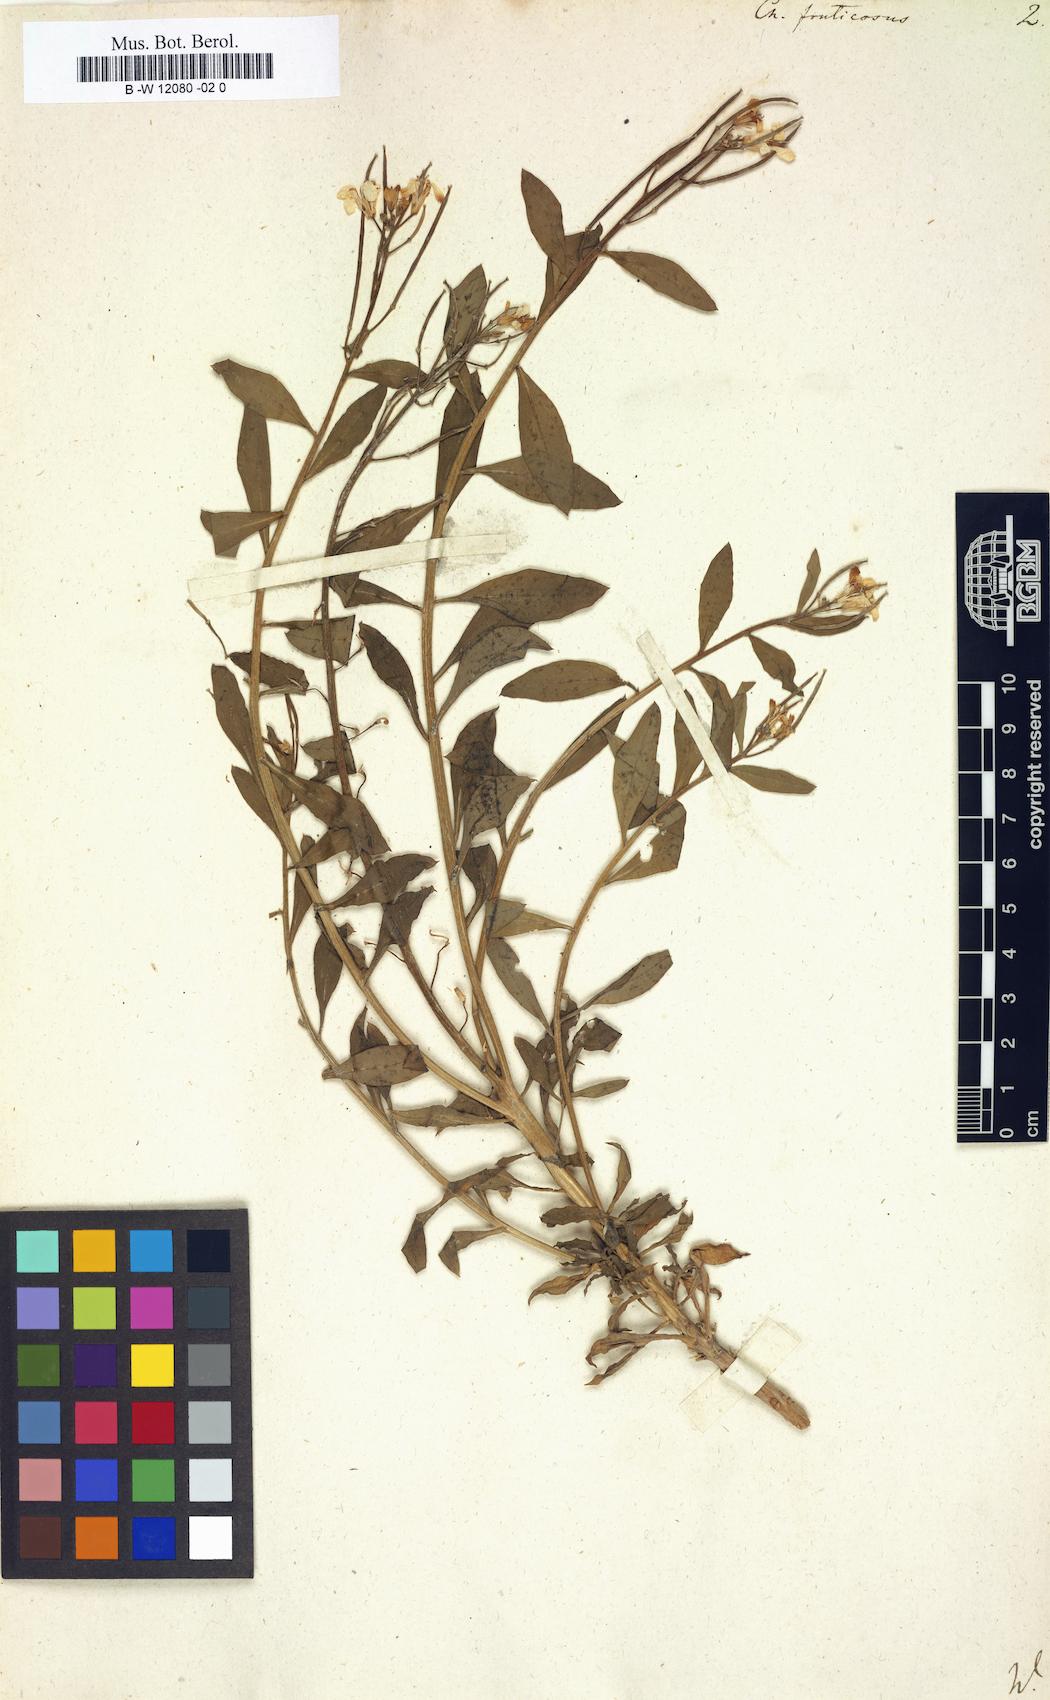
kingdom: Plantae
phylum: Tracheophyta
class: Magnoliopsida
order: Brassicales
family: Brassicaceae
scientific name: Brassicaceae
